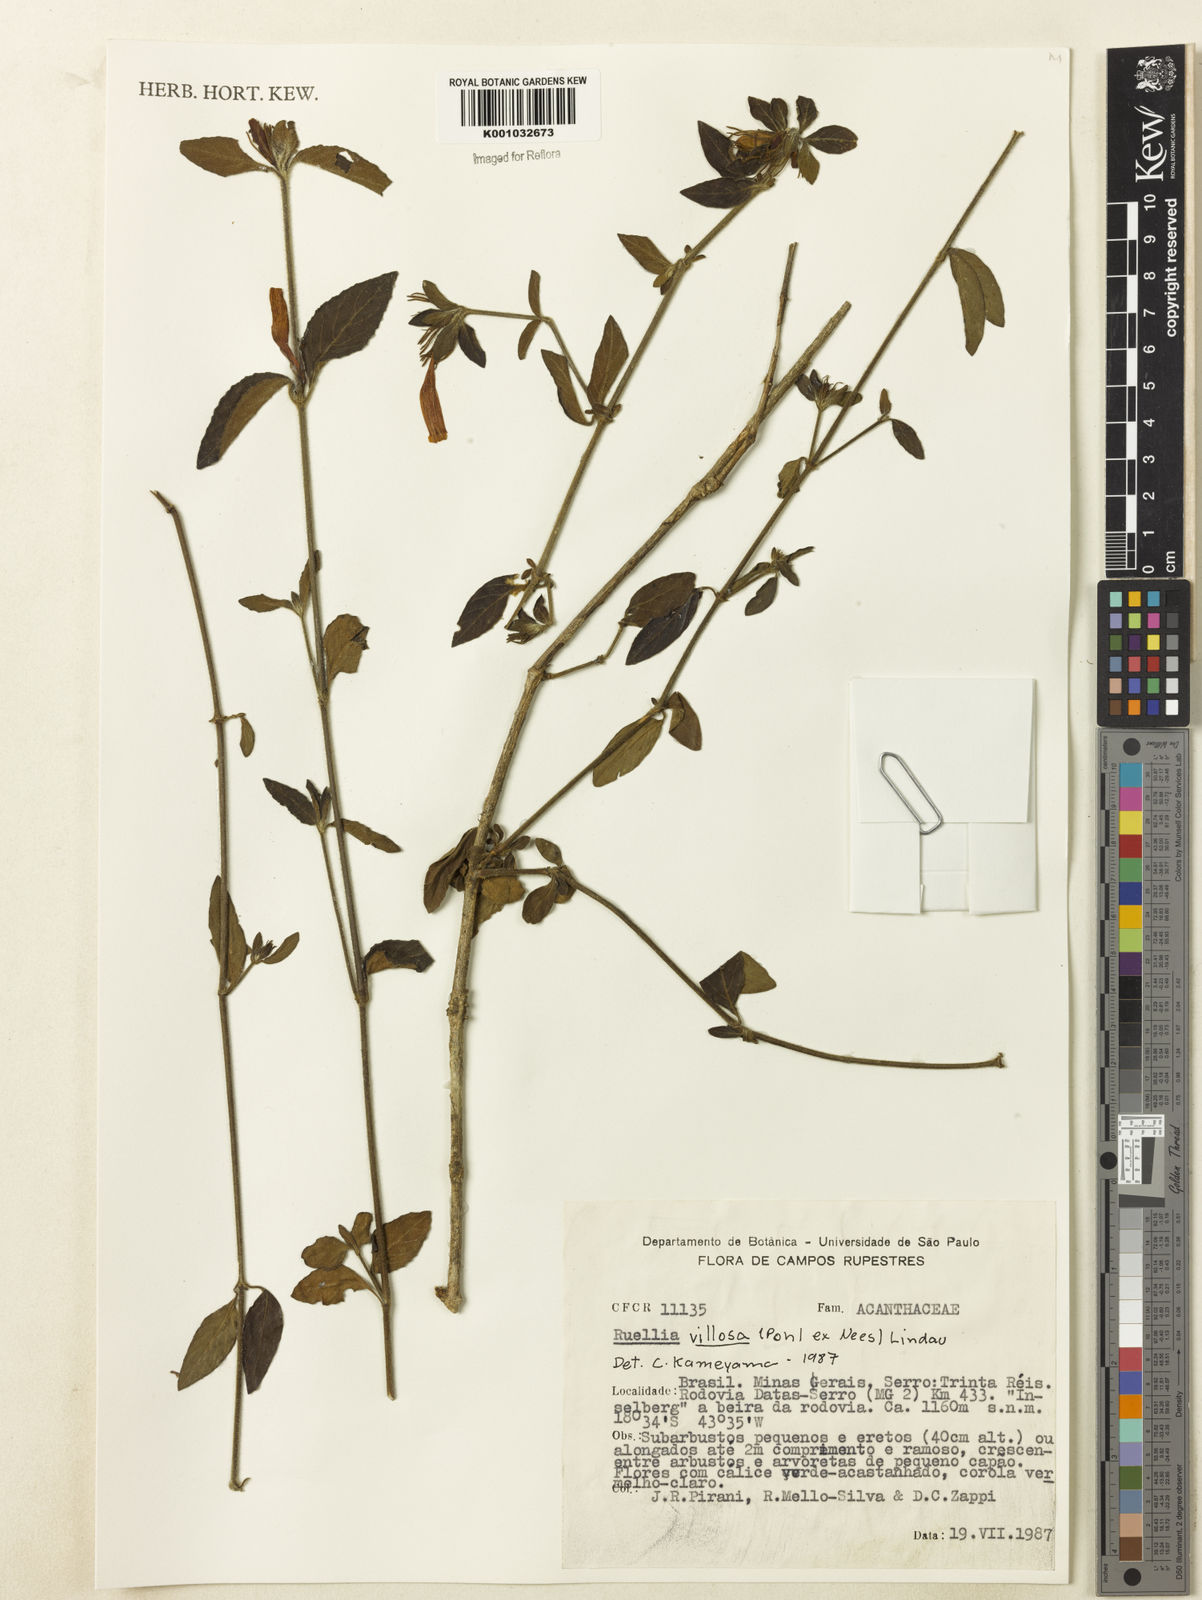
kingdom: Plantae
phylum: Tracheophyta
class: Magnoliopsida
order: Lamiales
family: Acanthaceae
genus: Ruellia
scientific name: Ruellia villosa
